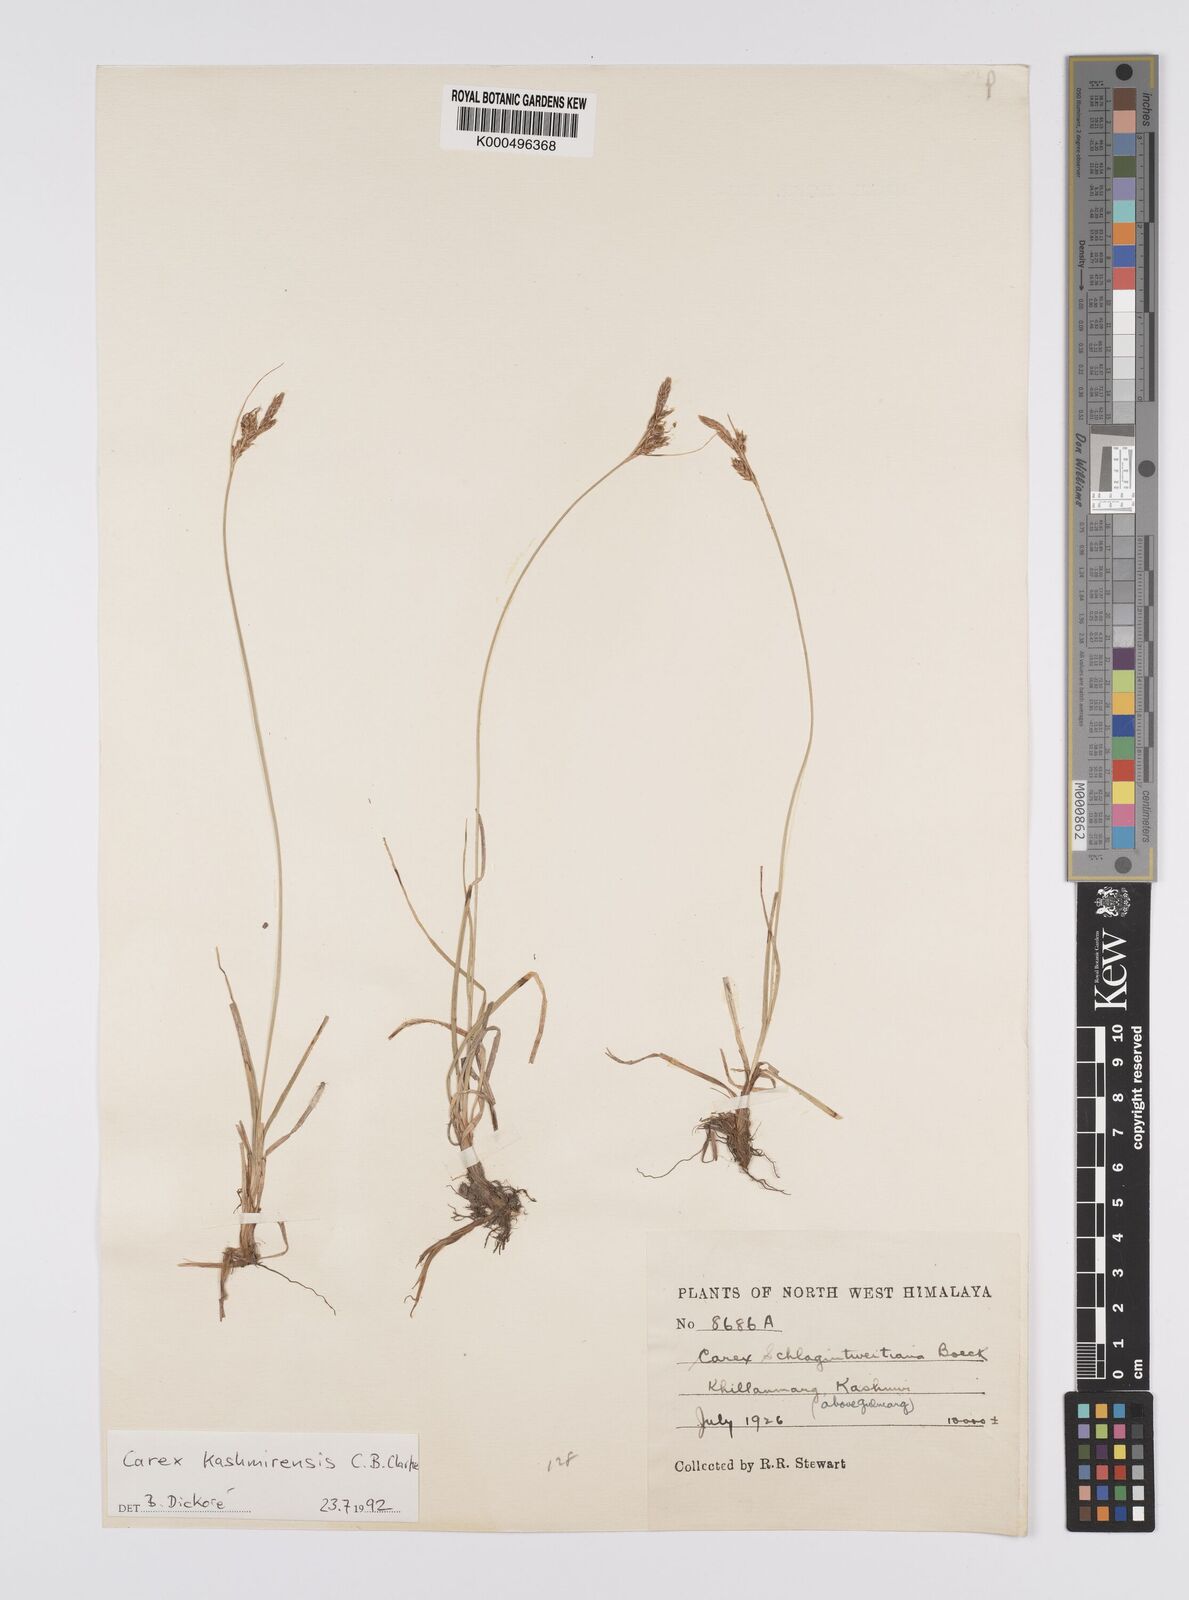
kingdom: Plantae
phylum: Tracheophyta
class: Liliopsida
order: Poales
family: Cyperaceae
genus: Carex
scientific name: Carex kashmirensis
